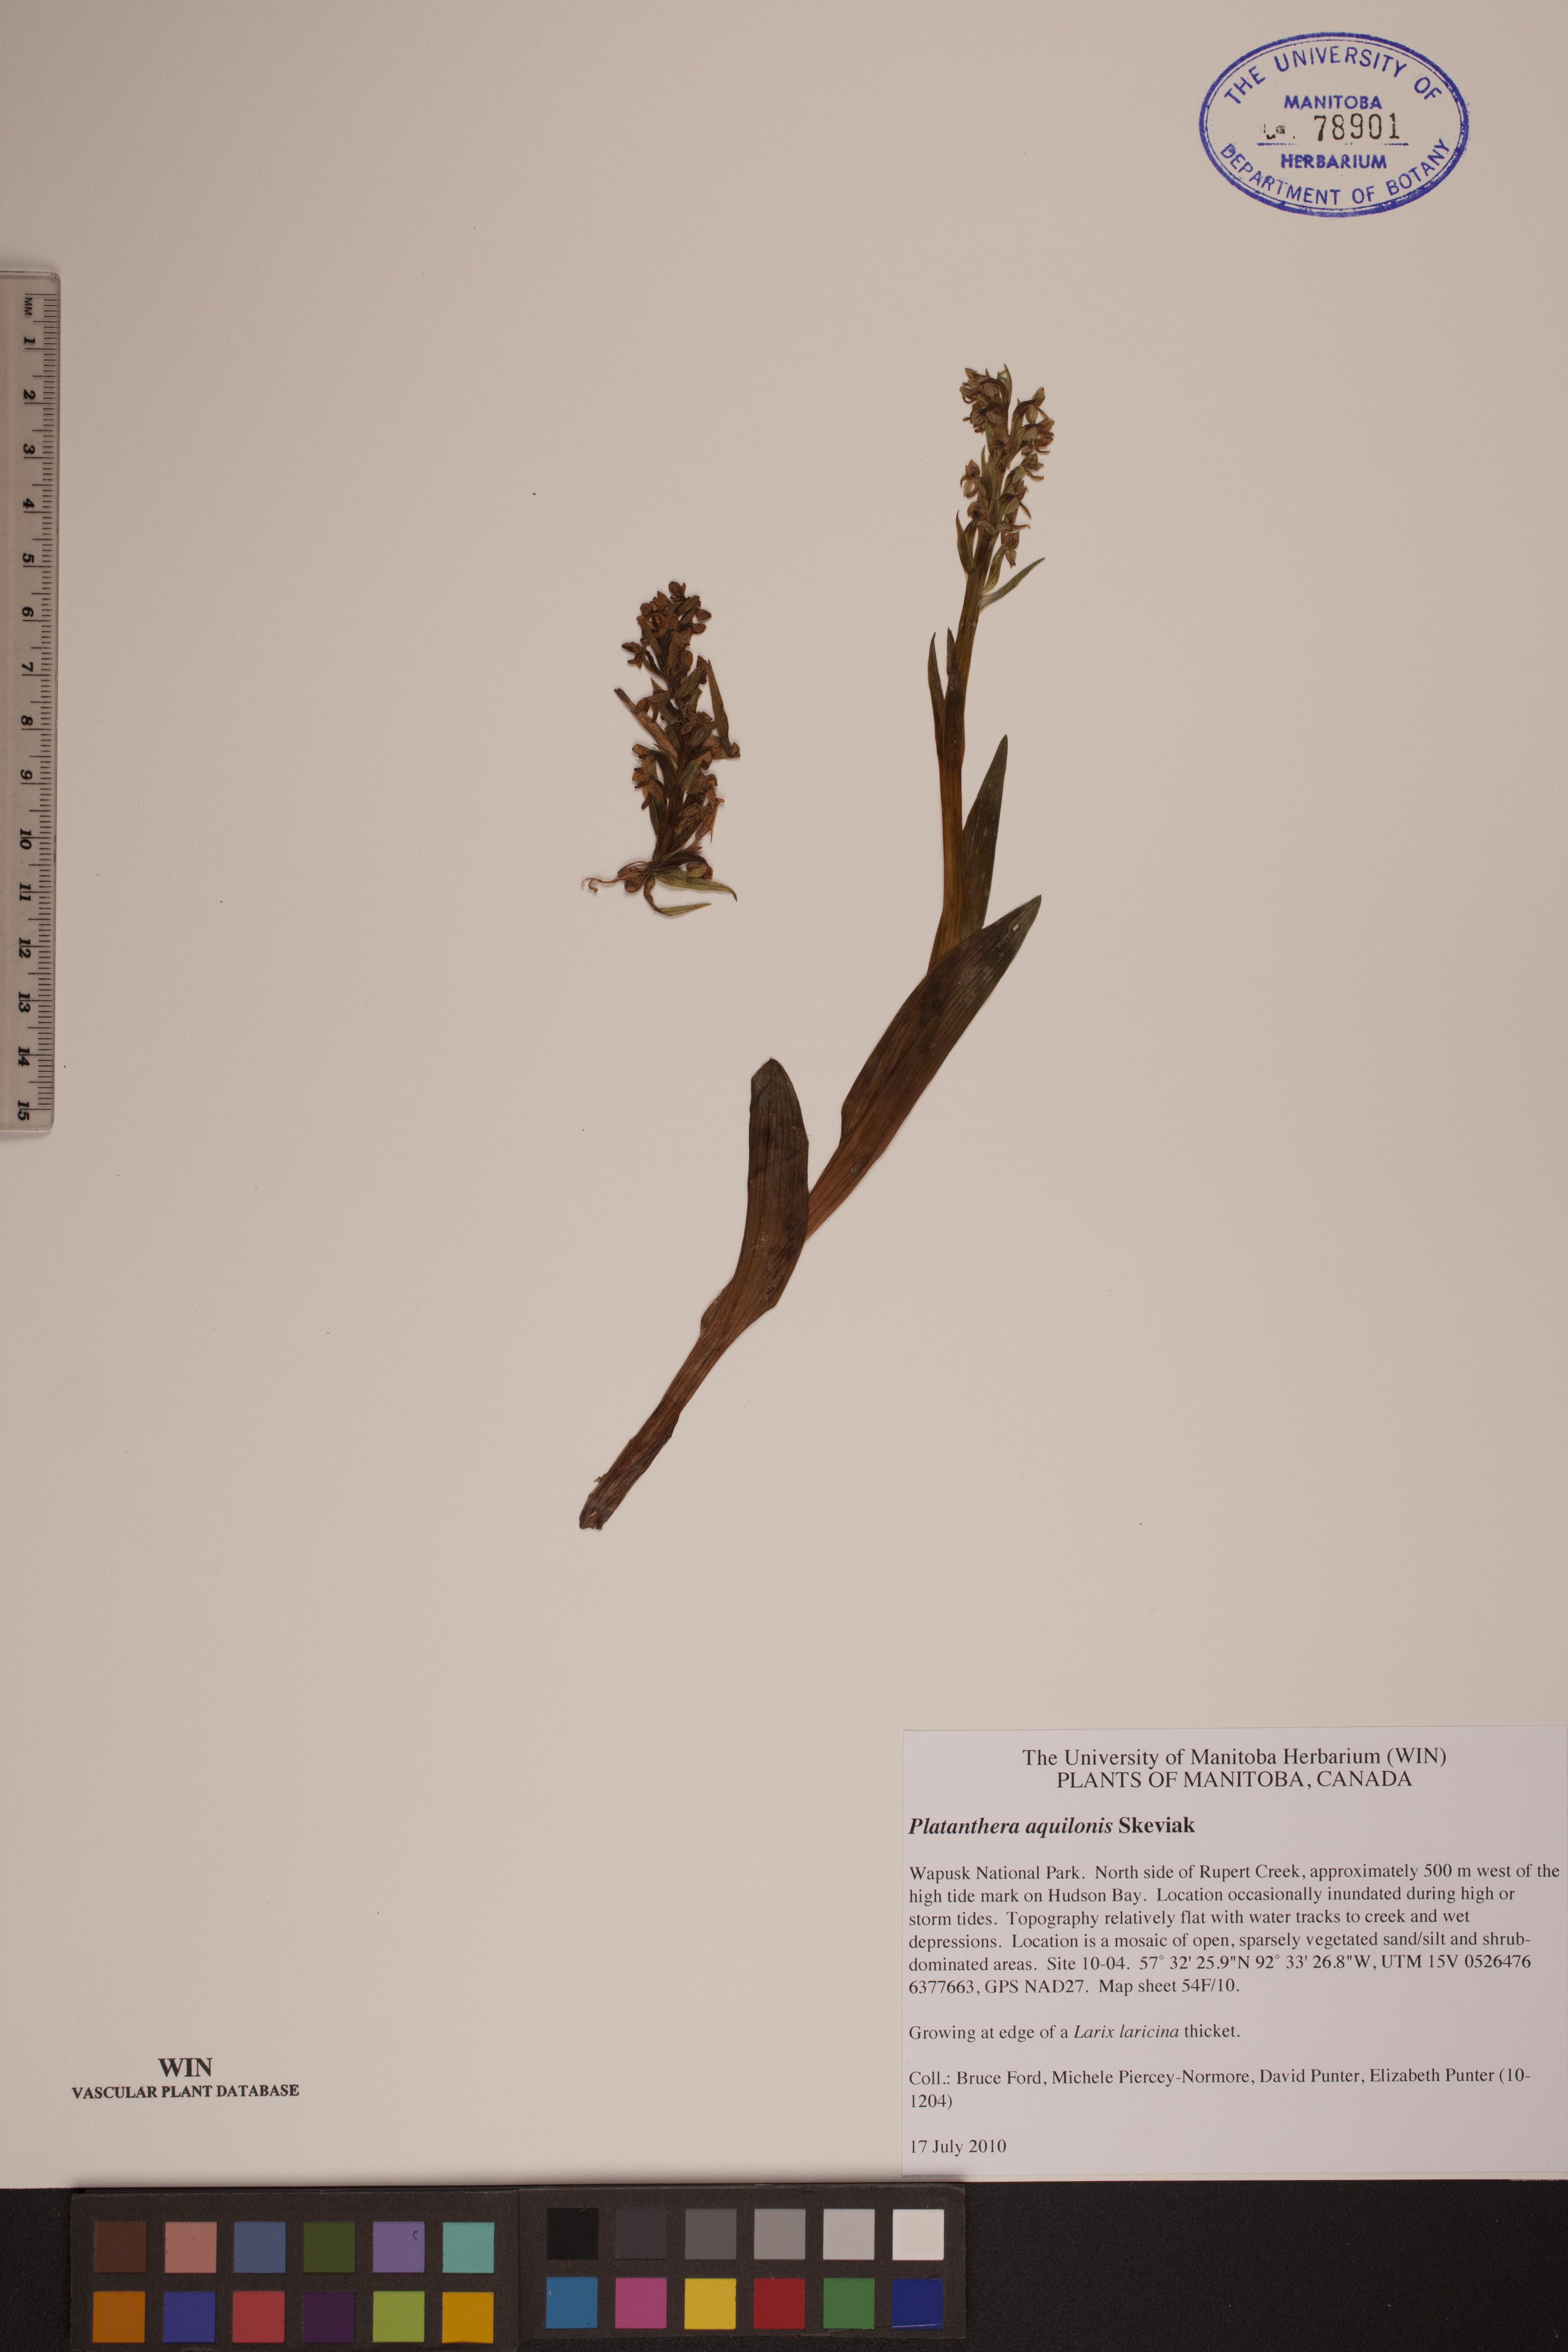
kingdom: Plantae
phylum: Tracheophyta
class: Liliopsida
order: Asparagales
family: Orchidaceae
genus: Platanthera
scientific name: Platanthera aquilonis
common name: Northern green orchid
